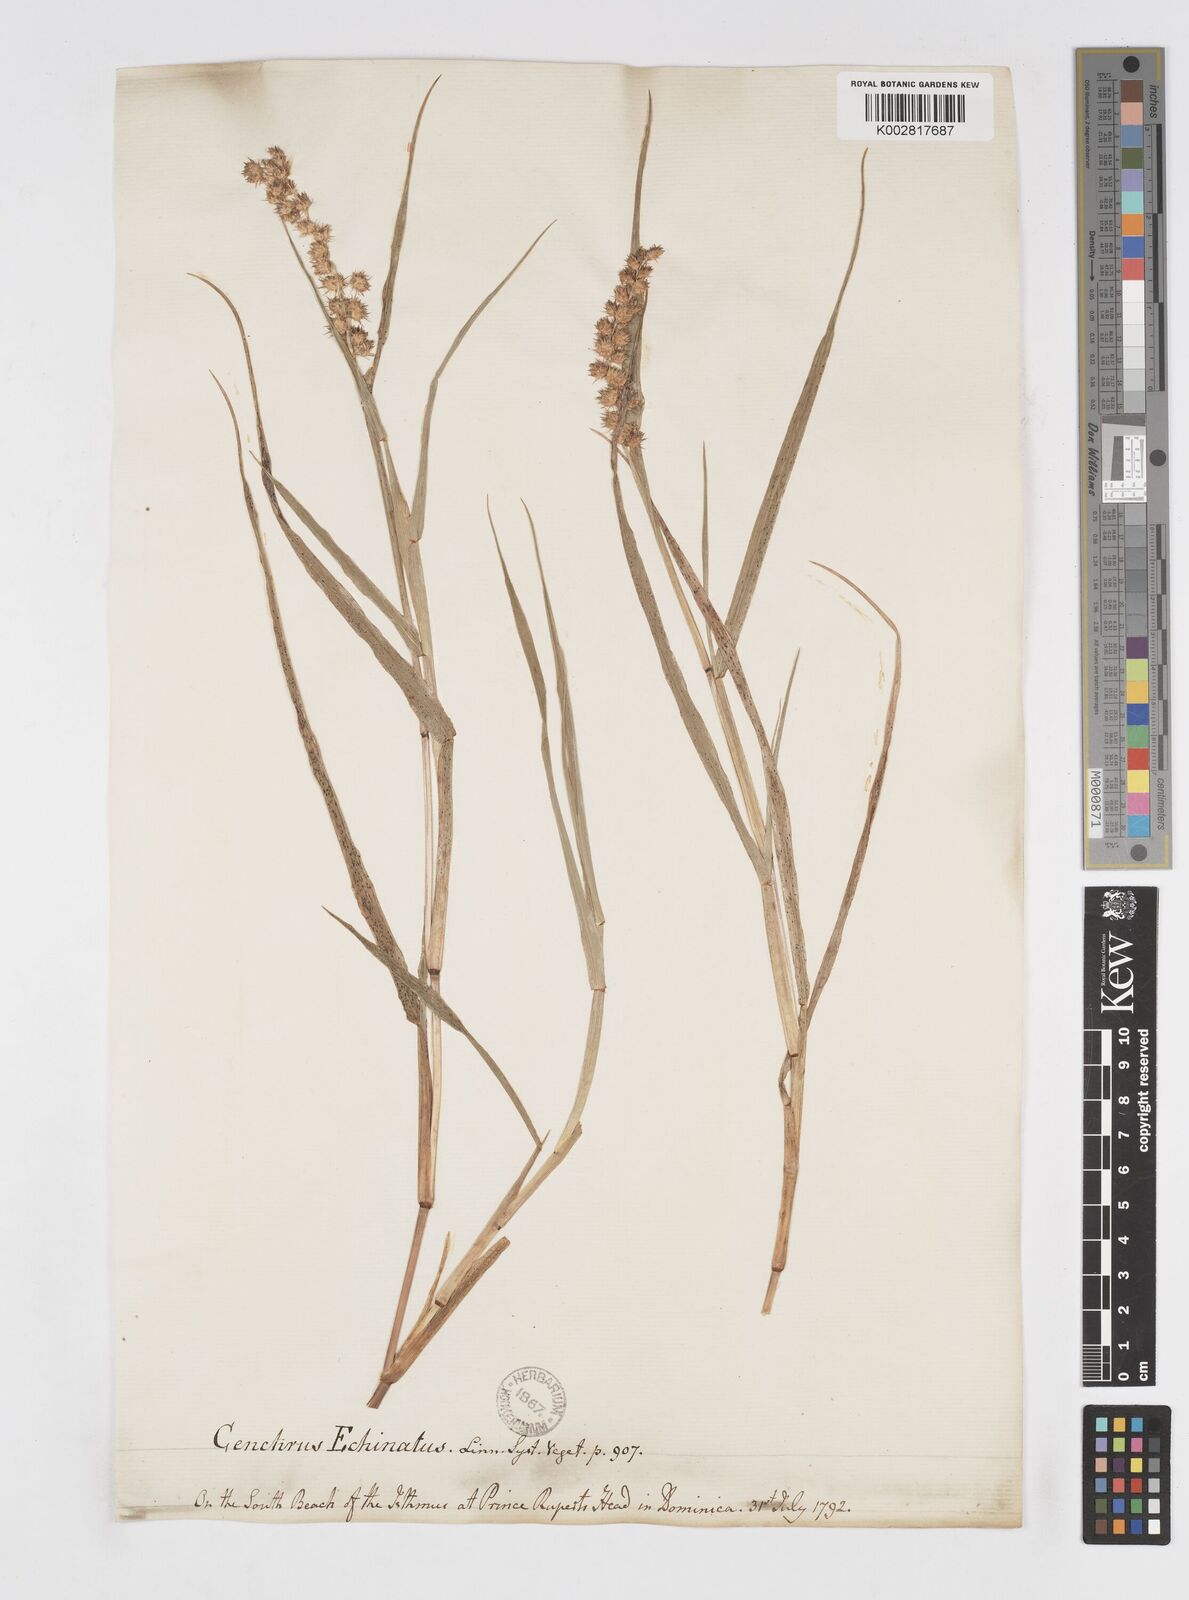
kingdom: Plantae
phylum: Tracheophyta
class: Liliopsida
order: Poales
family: Poaceae
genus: Cenchrus
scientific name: Cenchrus
